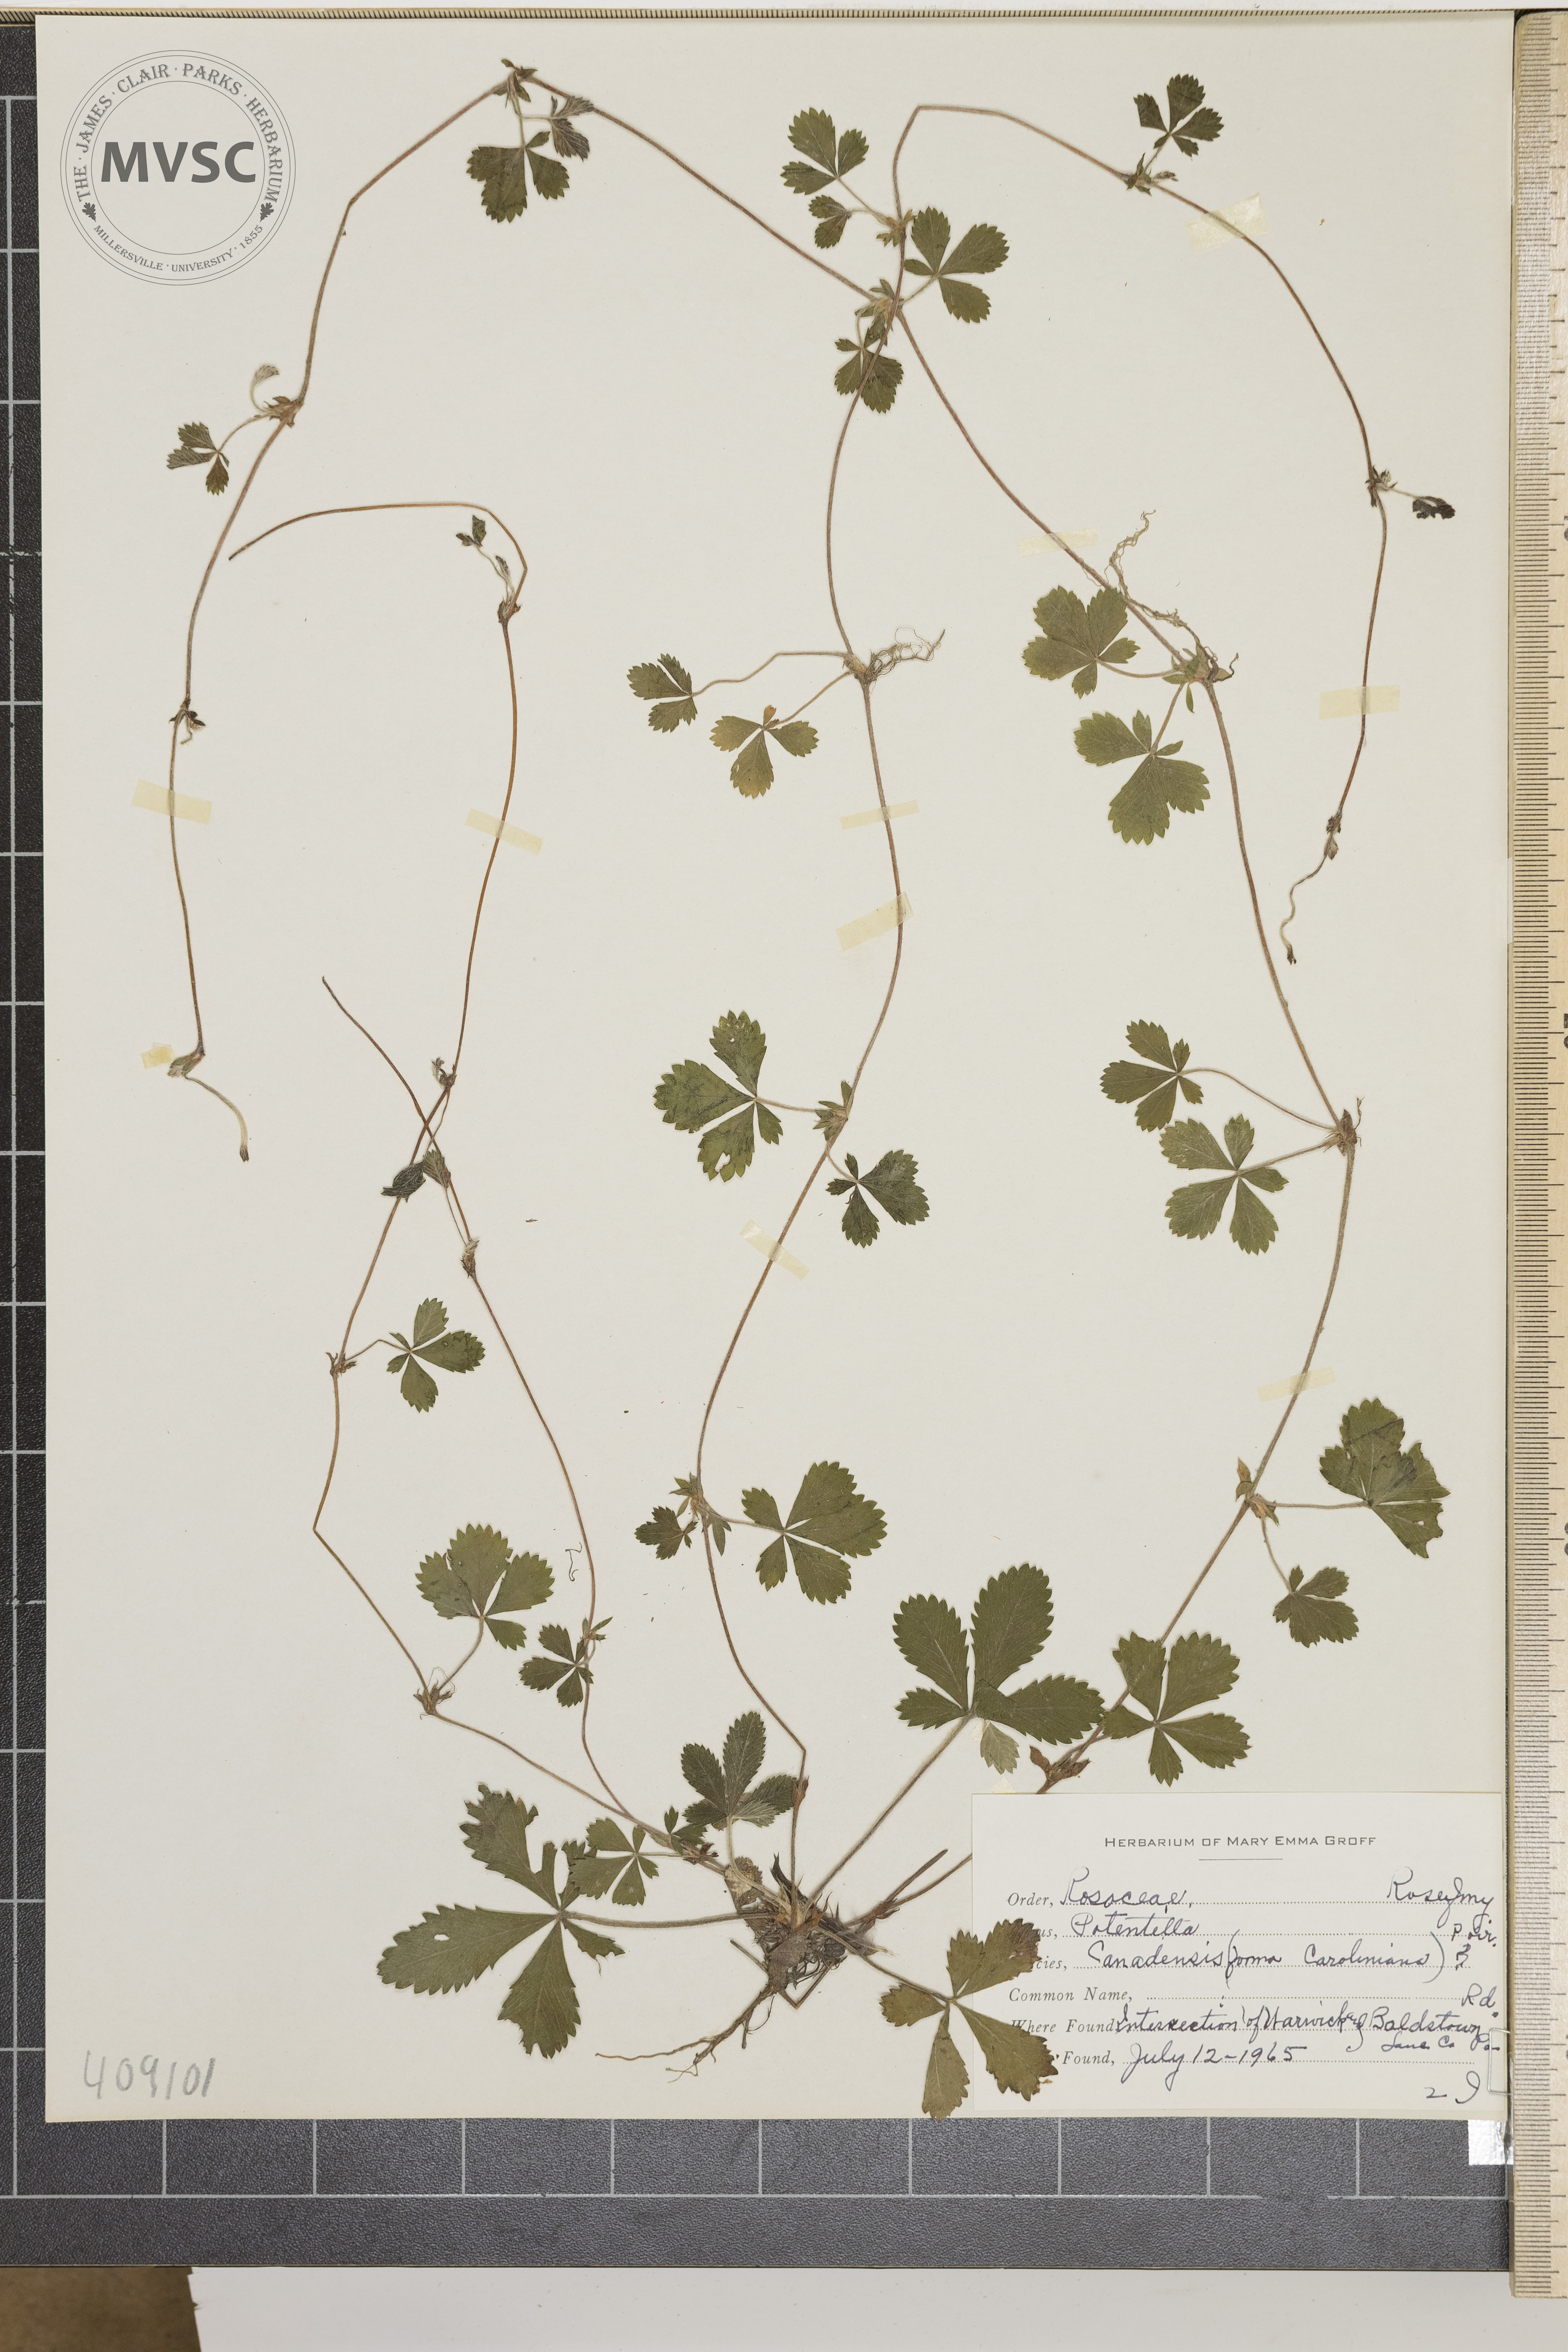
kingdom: Plantae
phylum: Tracheophyta
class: Magnoliopsida
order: Rosales
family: Rosaceae
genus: Potentilla
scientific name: Potentilla canadensis
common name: Canada cinquefoil
